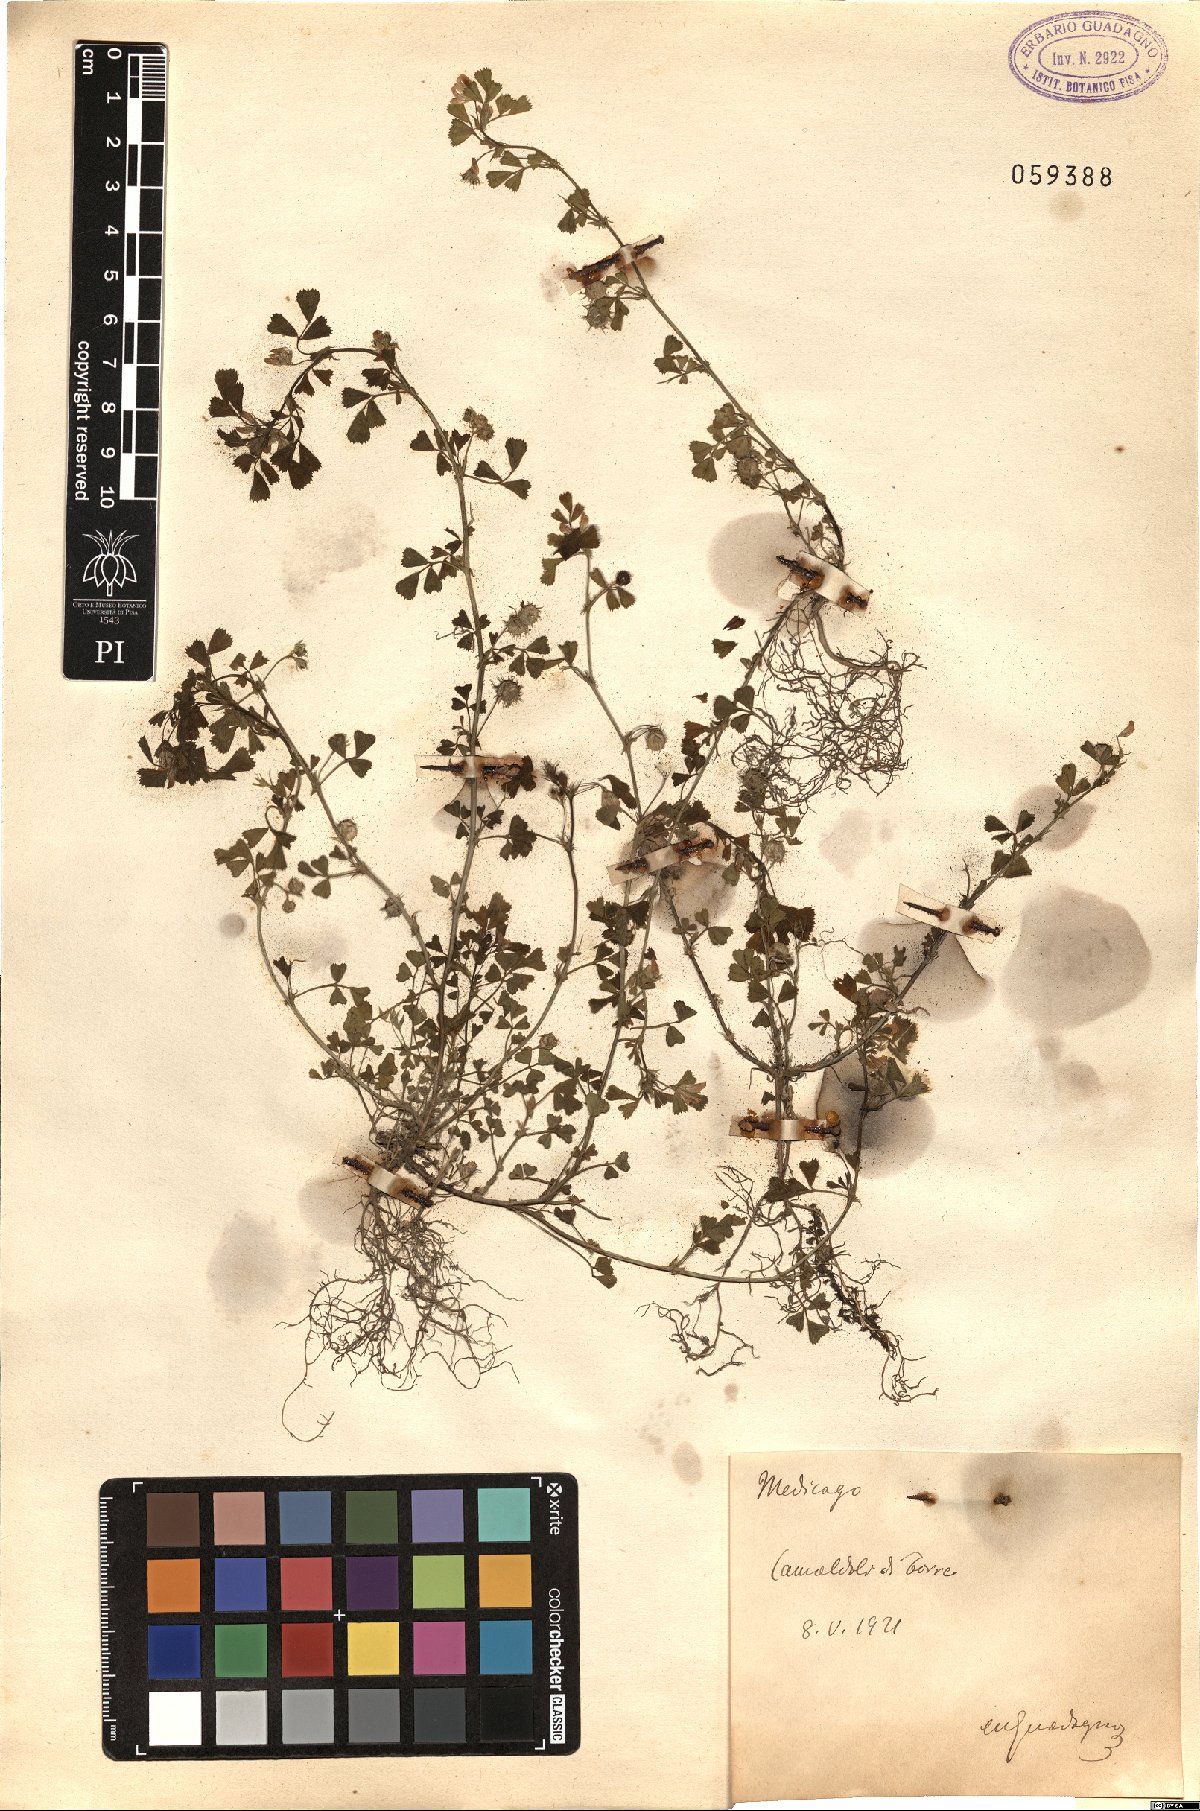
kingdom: Plantae
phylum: Tracheophyta
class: Magnoliopsida
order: Fabales
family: Fabaceae
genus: Medicago
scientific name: Medicago
